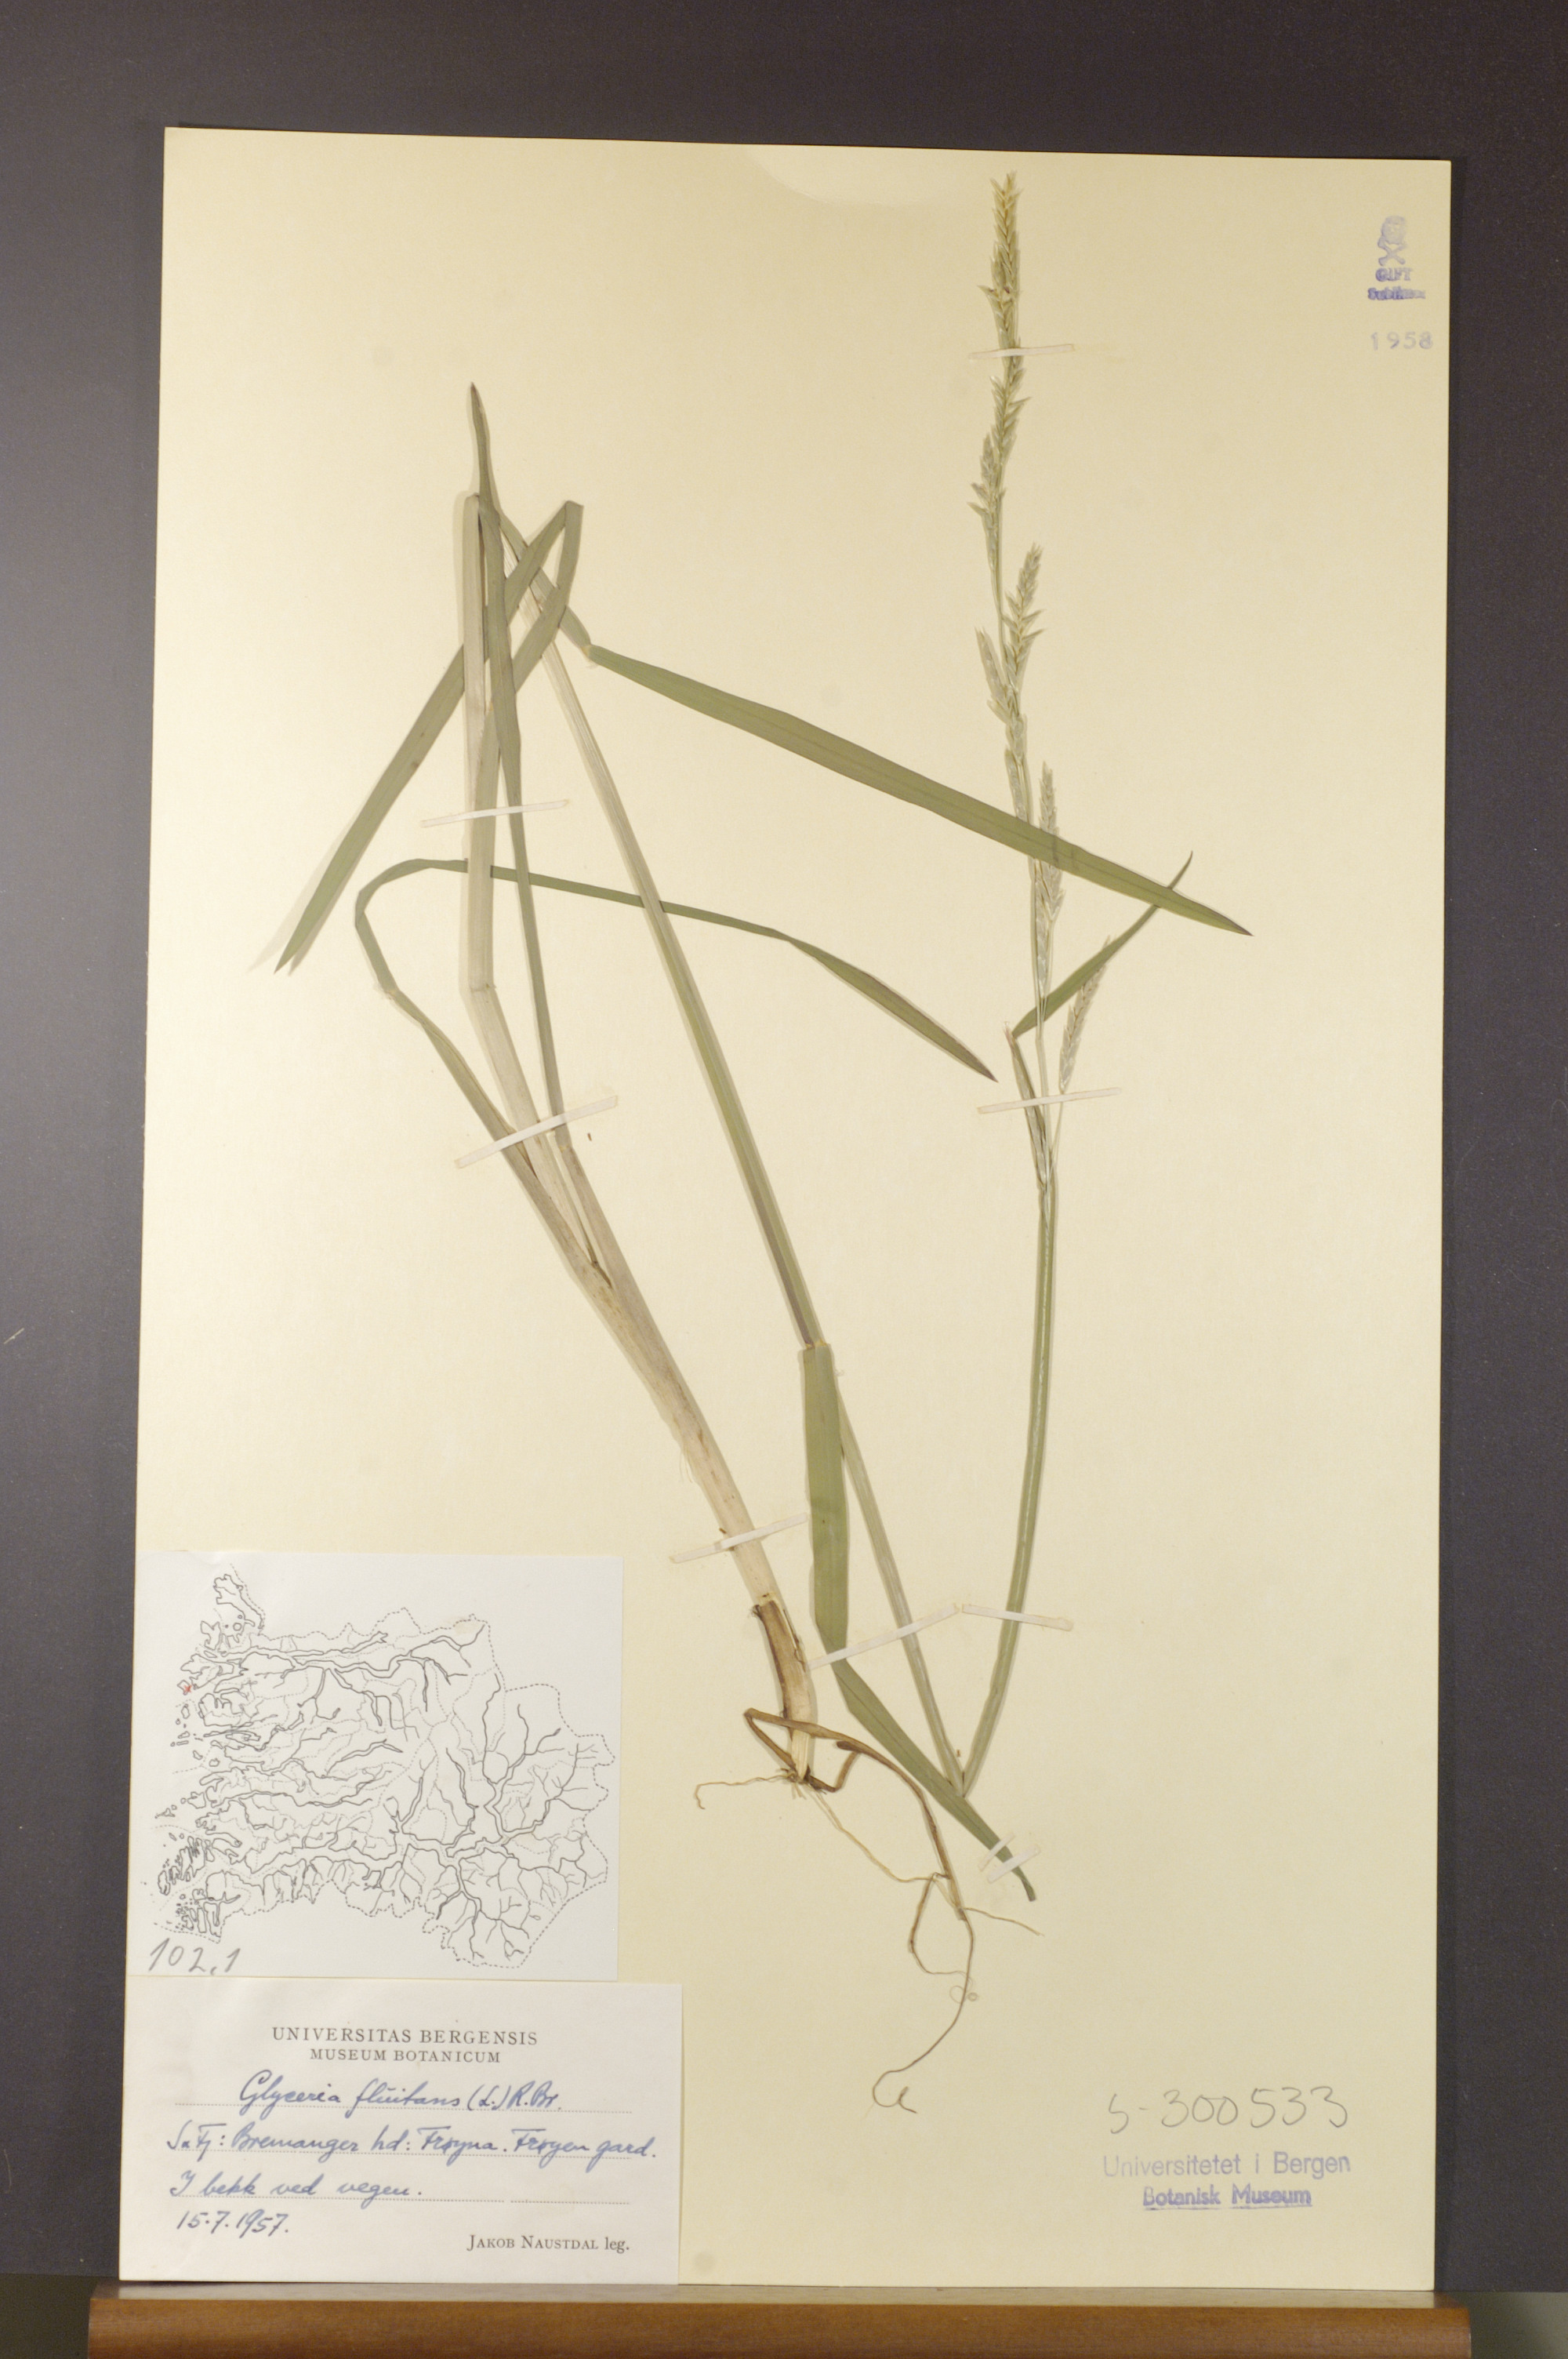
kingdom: Plantae
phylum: Tracheophyta
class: Liliopsida
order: Poales
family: Poaceae
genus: Glyceria
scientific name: Glyceria fluitans
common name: Floating sweet-grass
